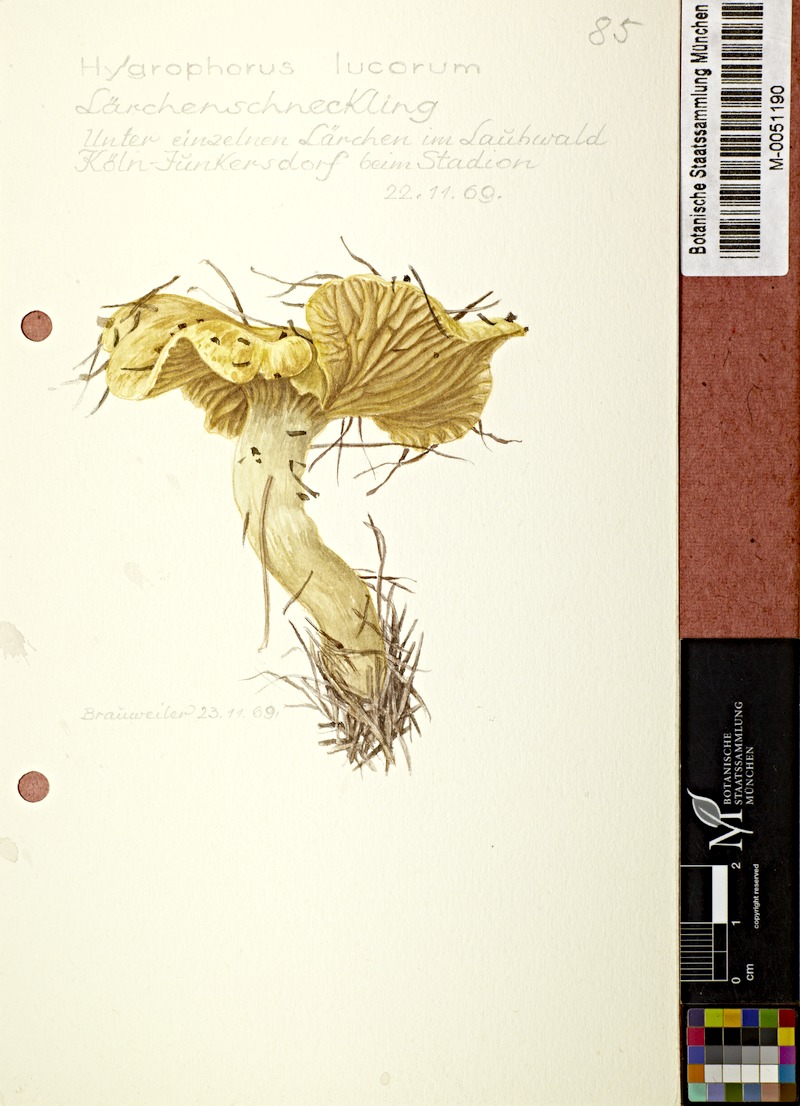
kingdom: Fungi
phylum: Basidiomycota
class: Agaricomycetes
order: Agaricales
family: Hygrophoraceae
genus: Hygrophorus
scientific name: Hygrophorus lucorum
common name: Larch woodwax
